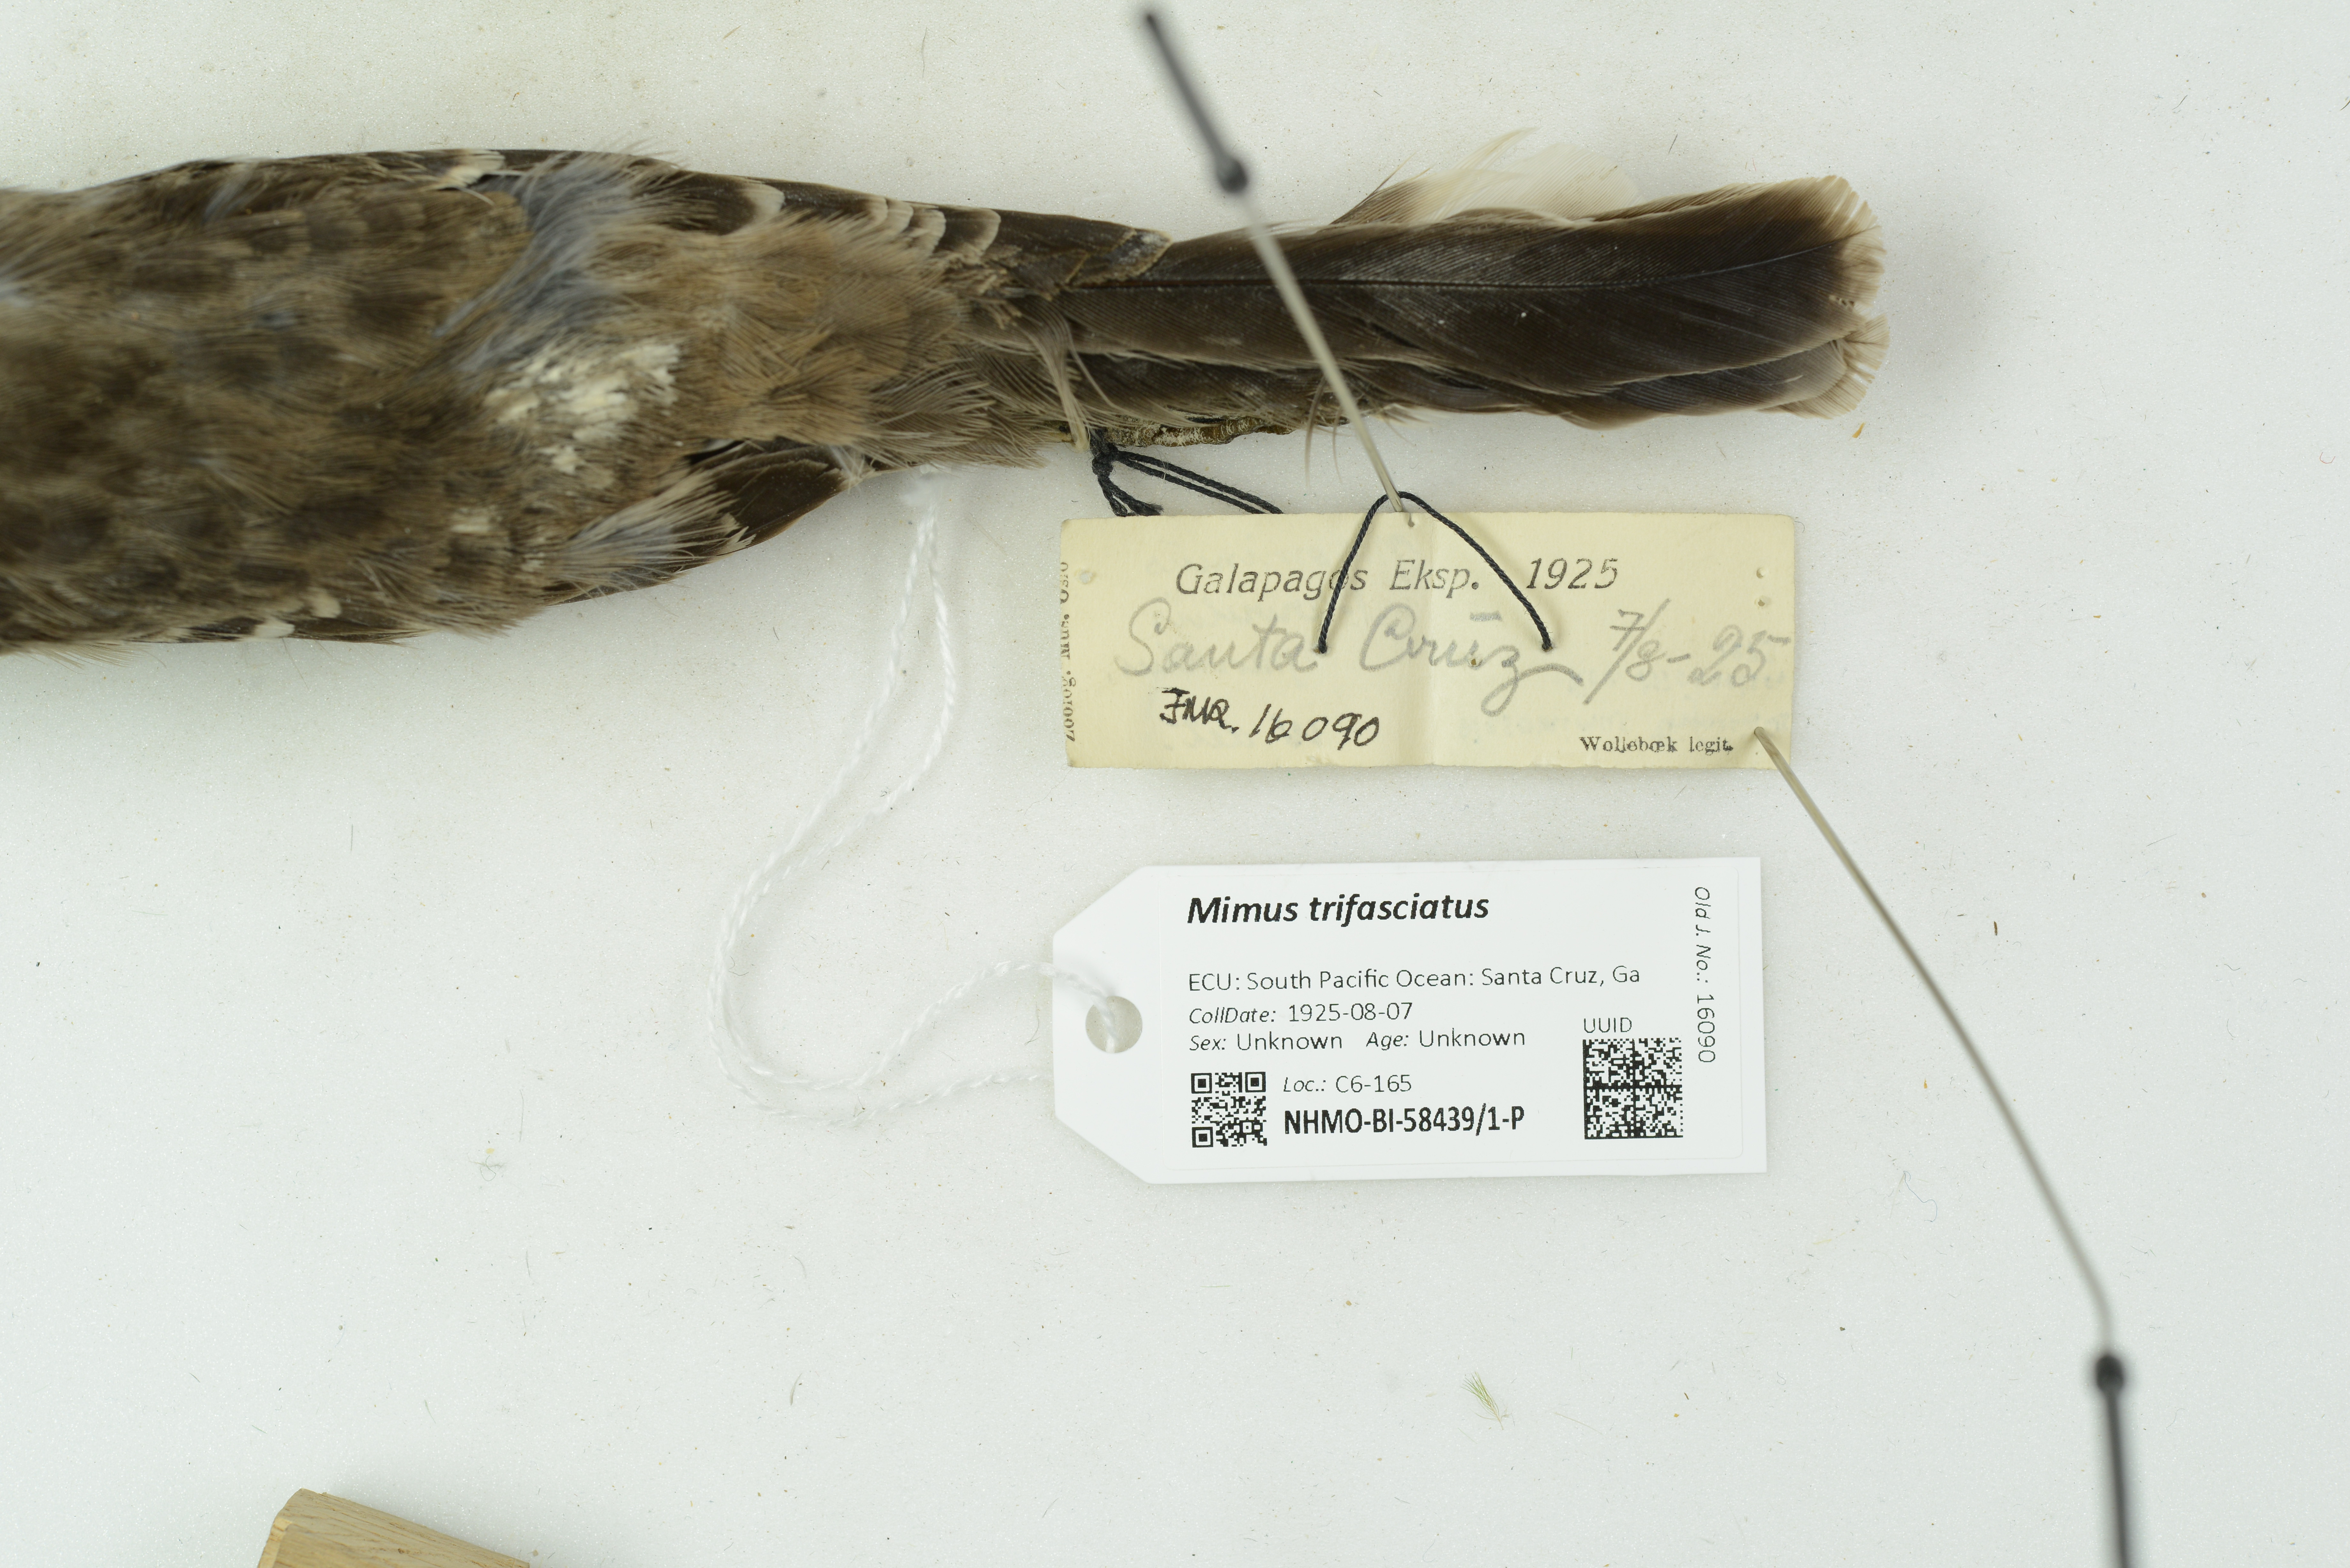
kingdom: Animalia
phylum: Chordata
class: Aves
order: Passeriformes
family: Mimidae
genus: Mimus
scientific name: Mimus trifasciatus
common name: Floreana mockingbird
